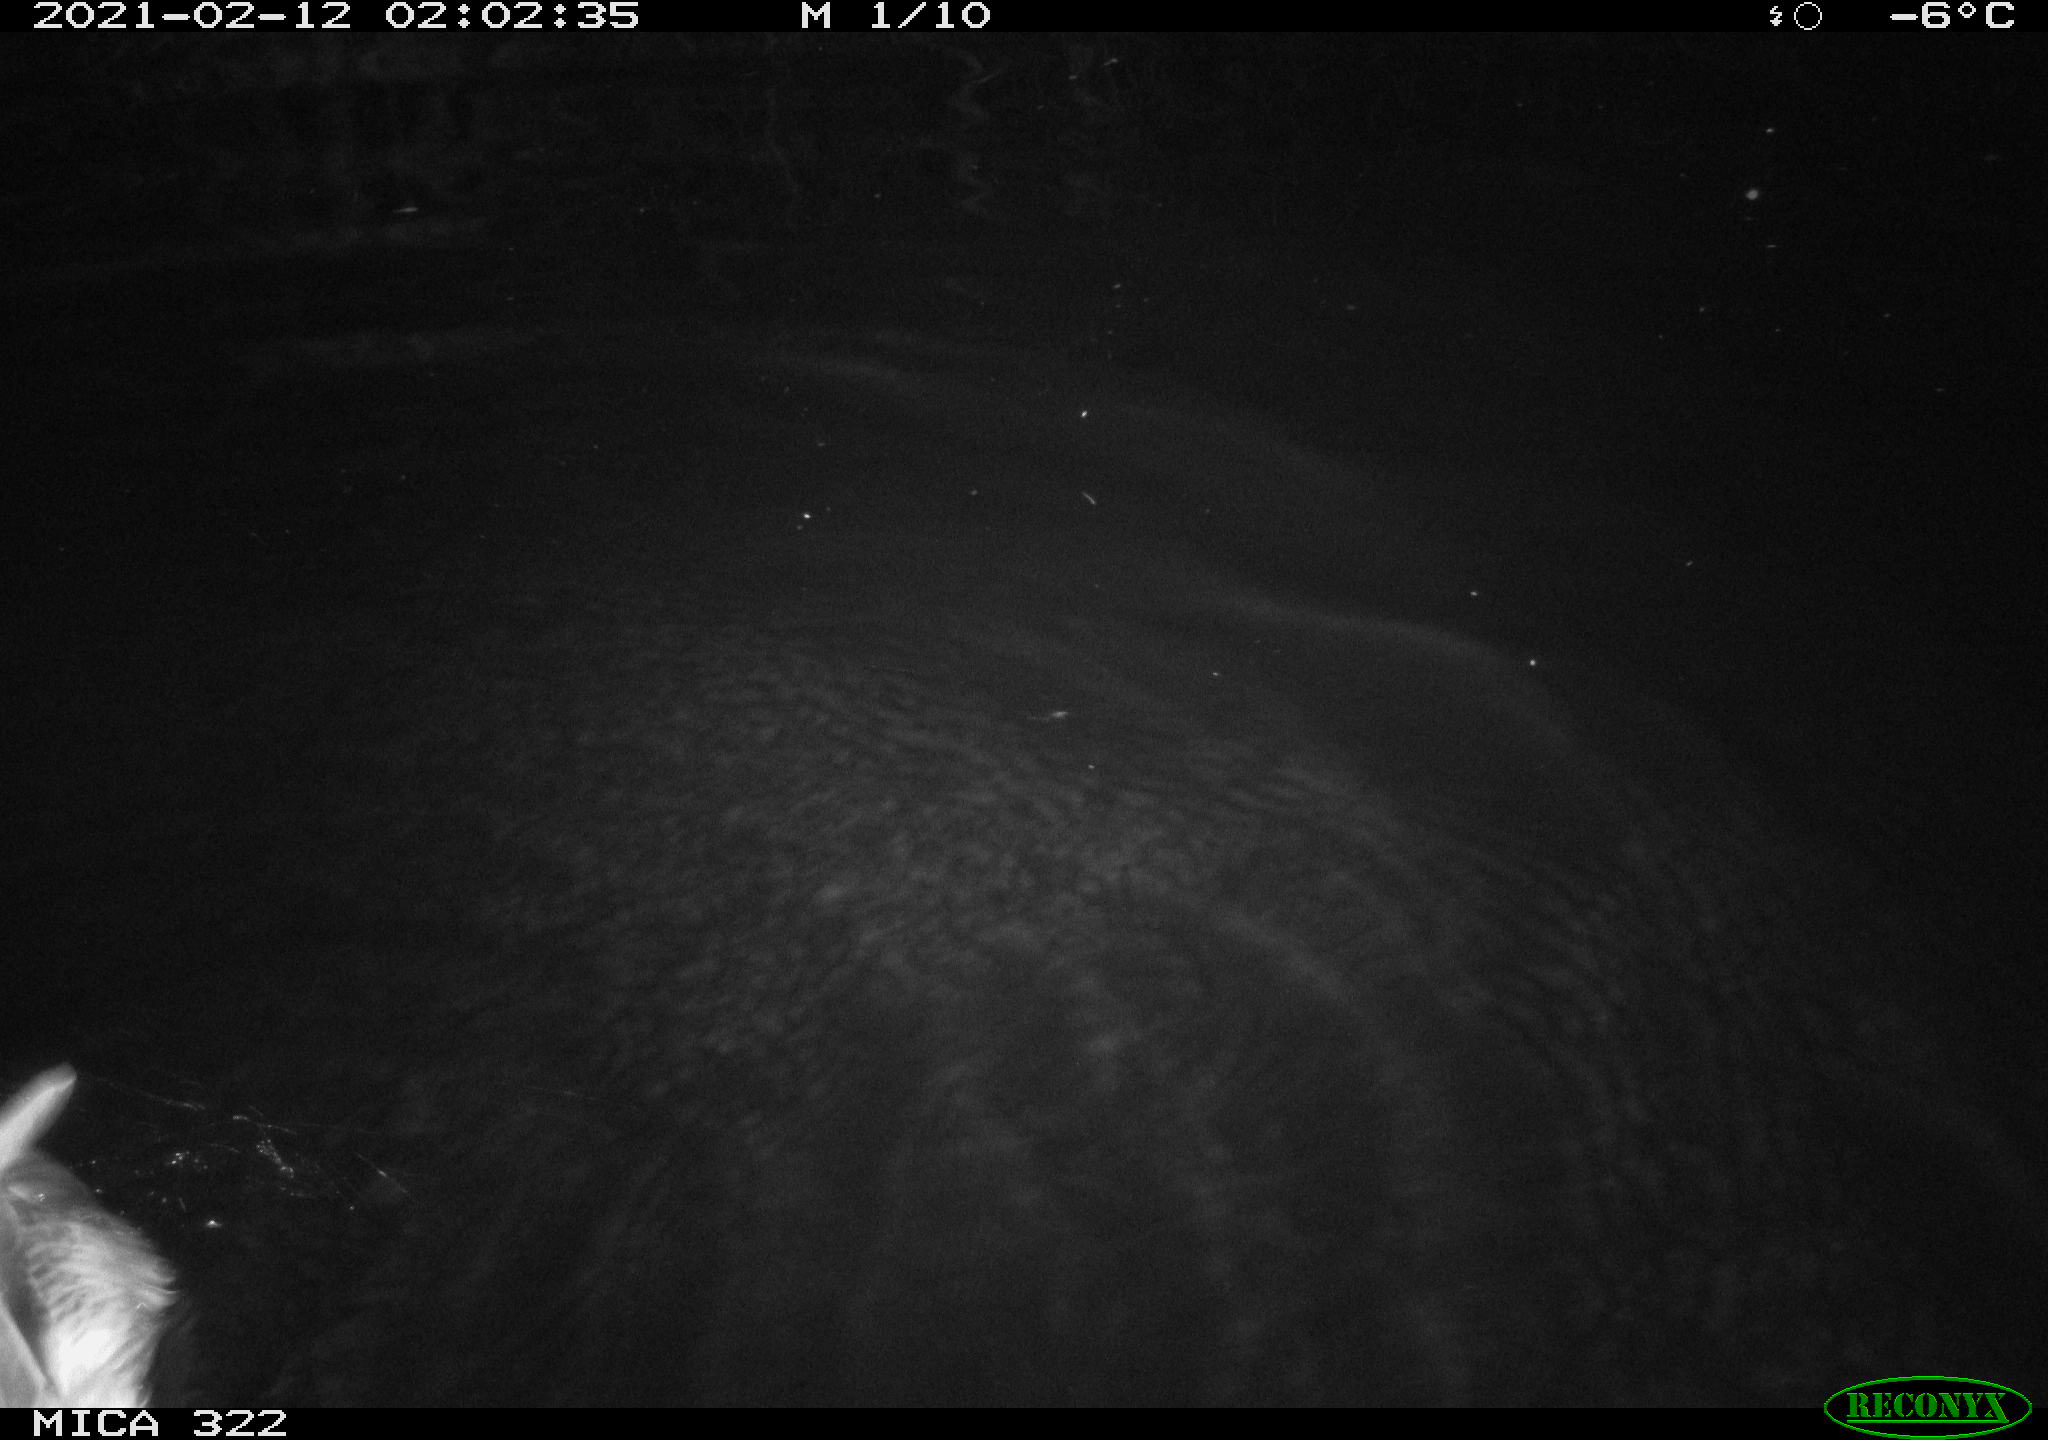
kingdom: Animalia
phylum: Chordata
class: Aves
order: Anseriformes
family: Anatidae
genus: Anas
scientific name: Anas platyrhynchos
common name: Mallard
